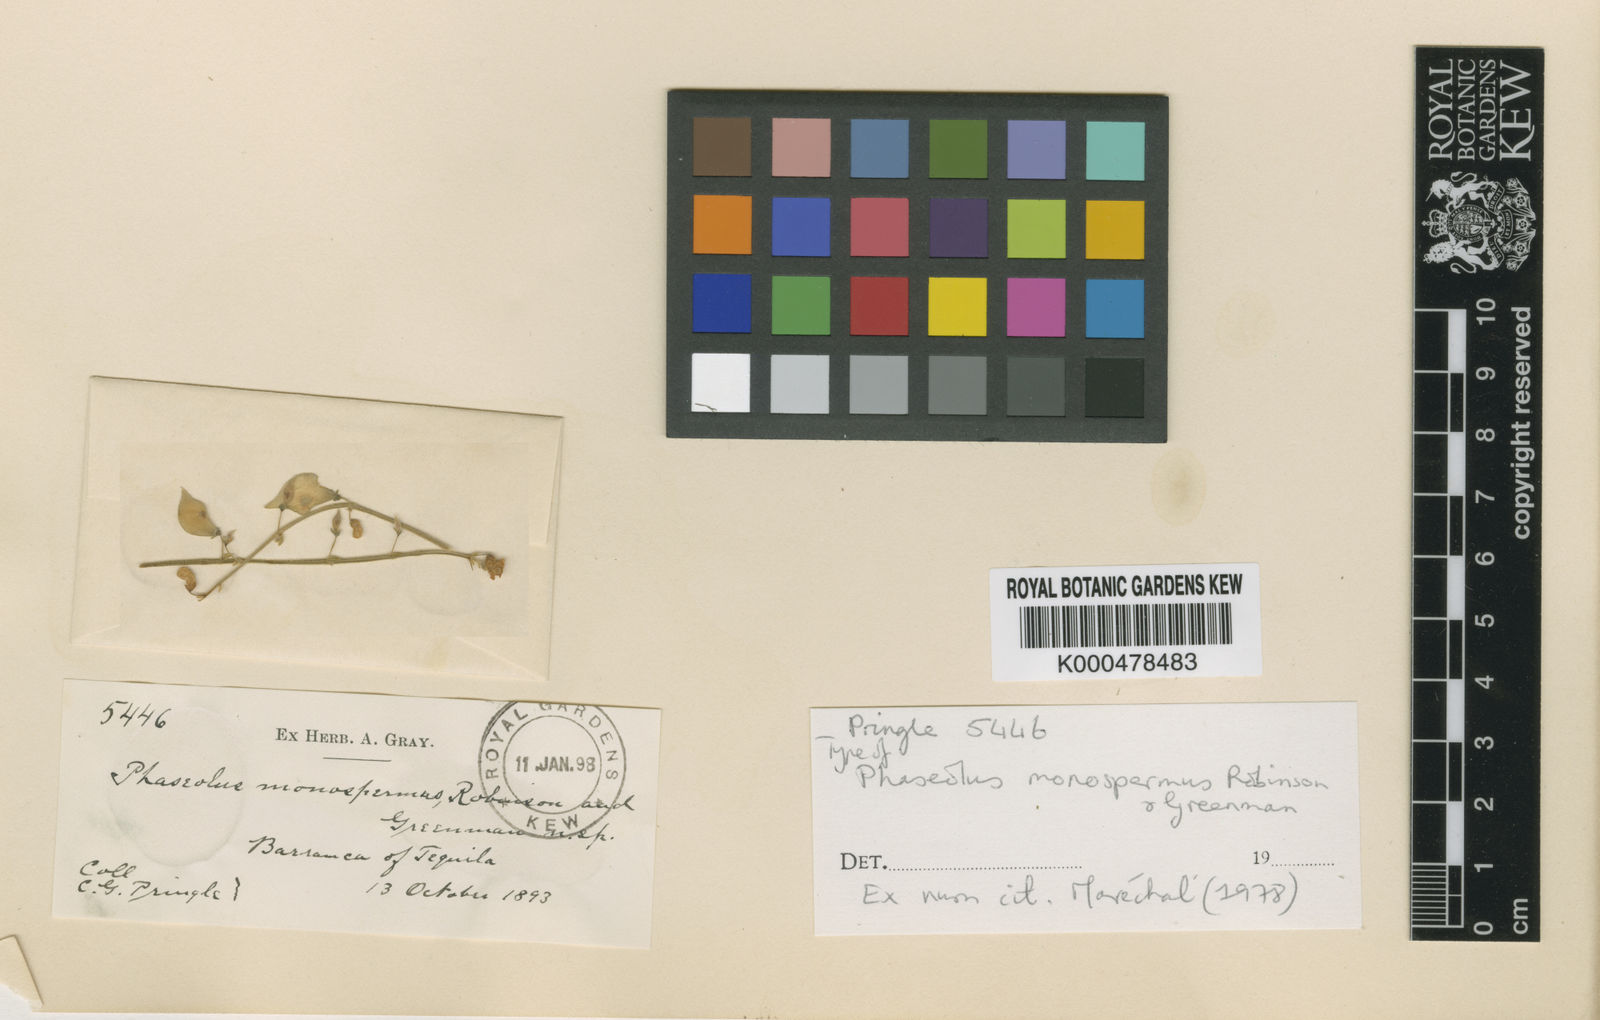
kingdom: Plantae
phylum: Tracheophyta
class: Magnoliopsida
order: Fabales
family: Fabaceae
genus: Phaseolus
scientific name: Phaseolus
